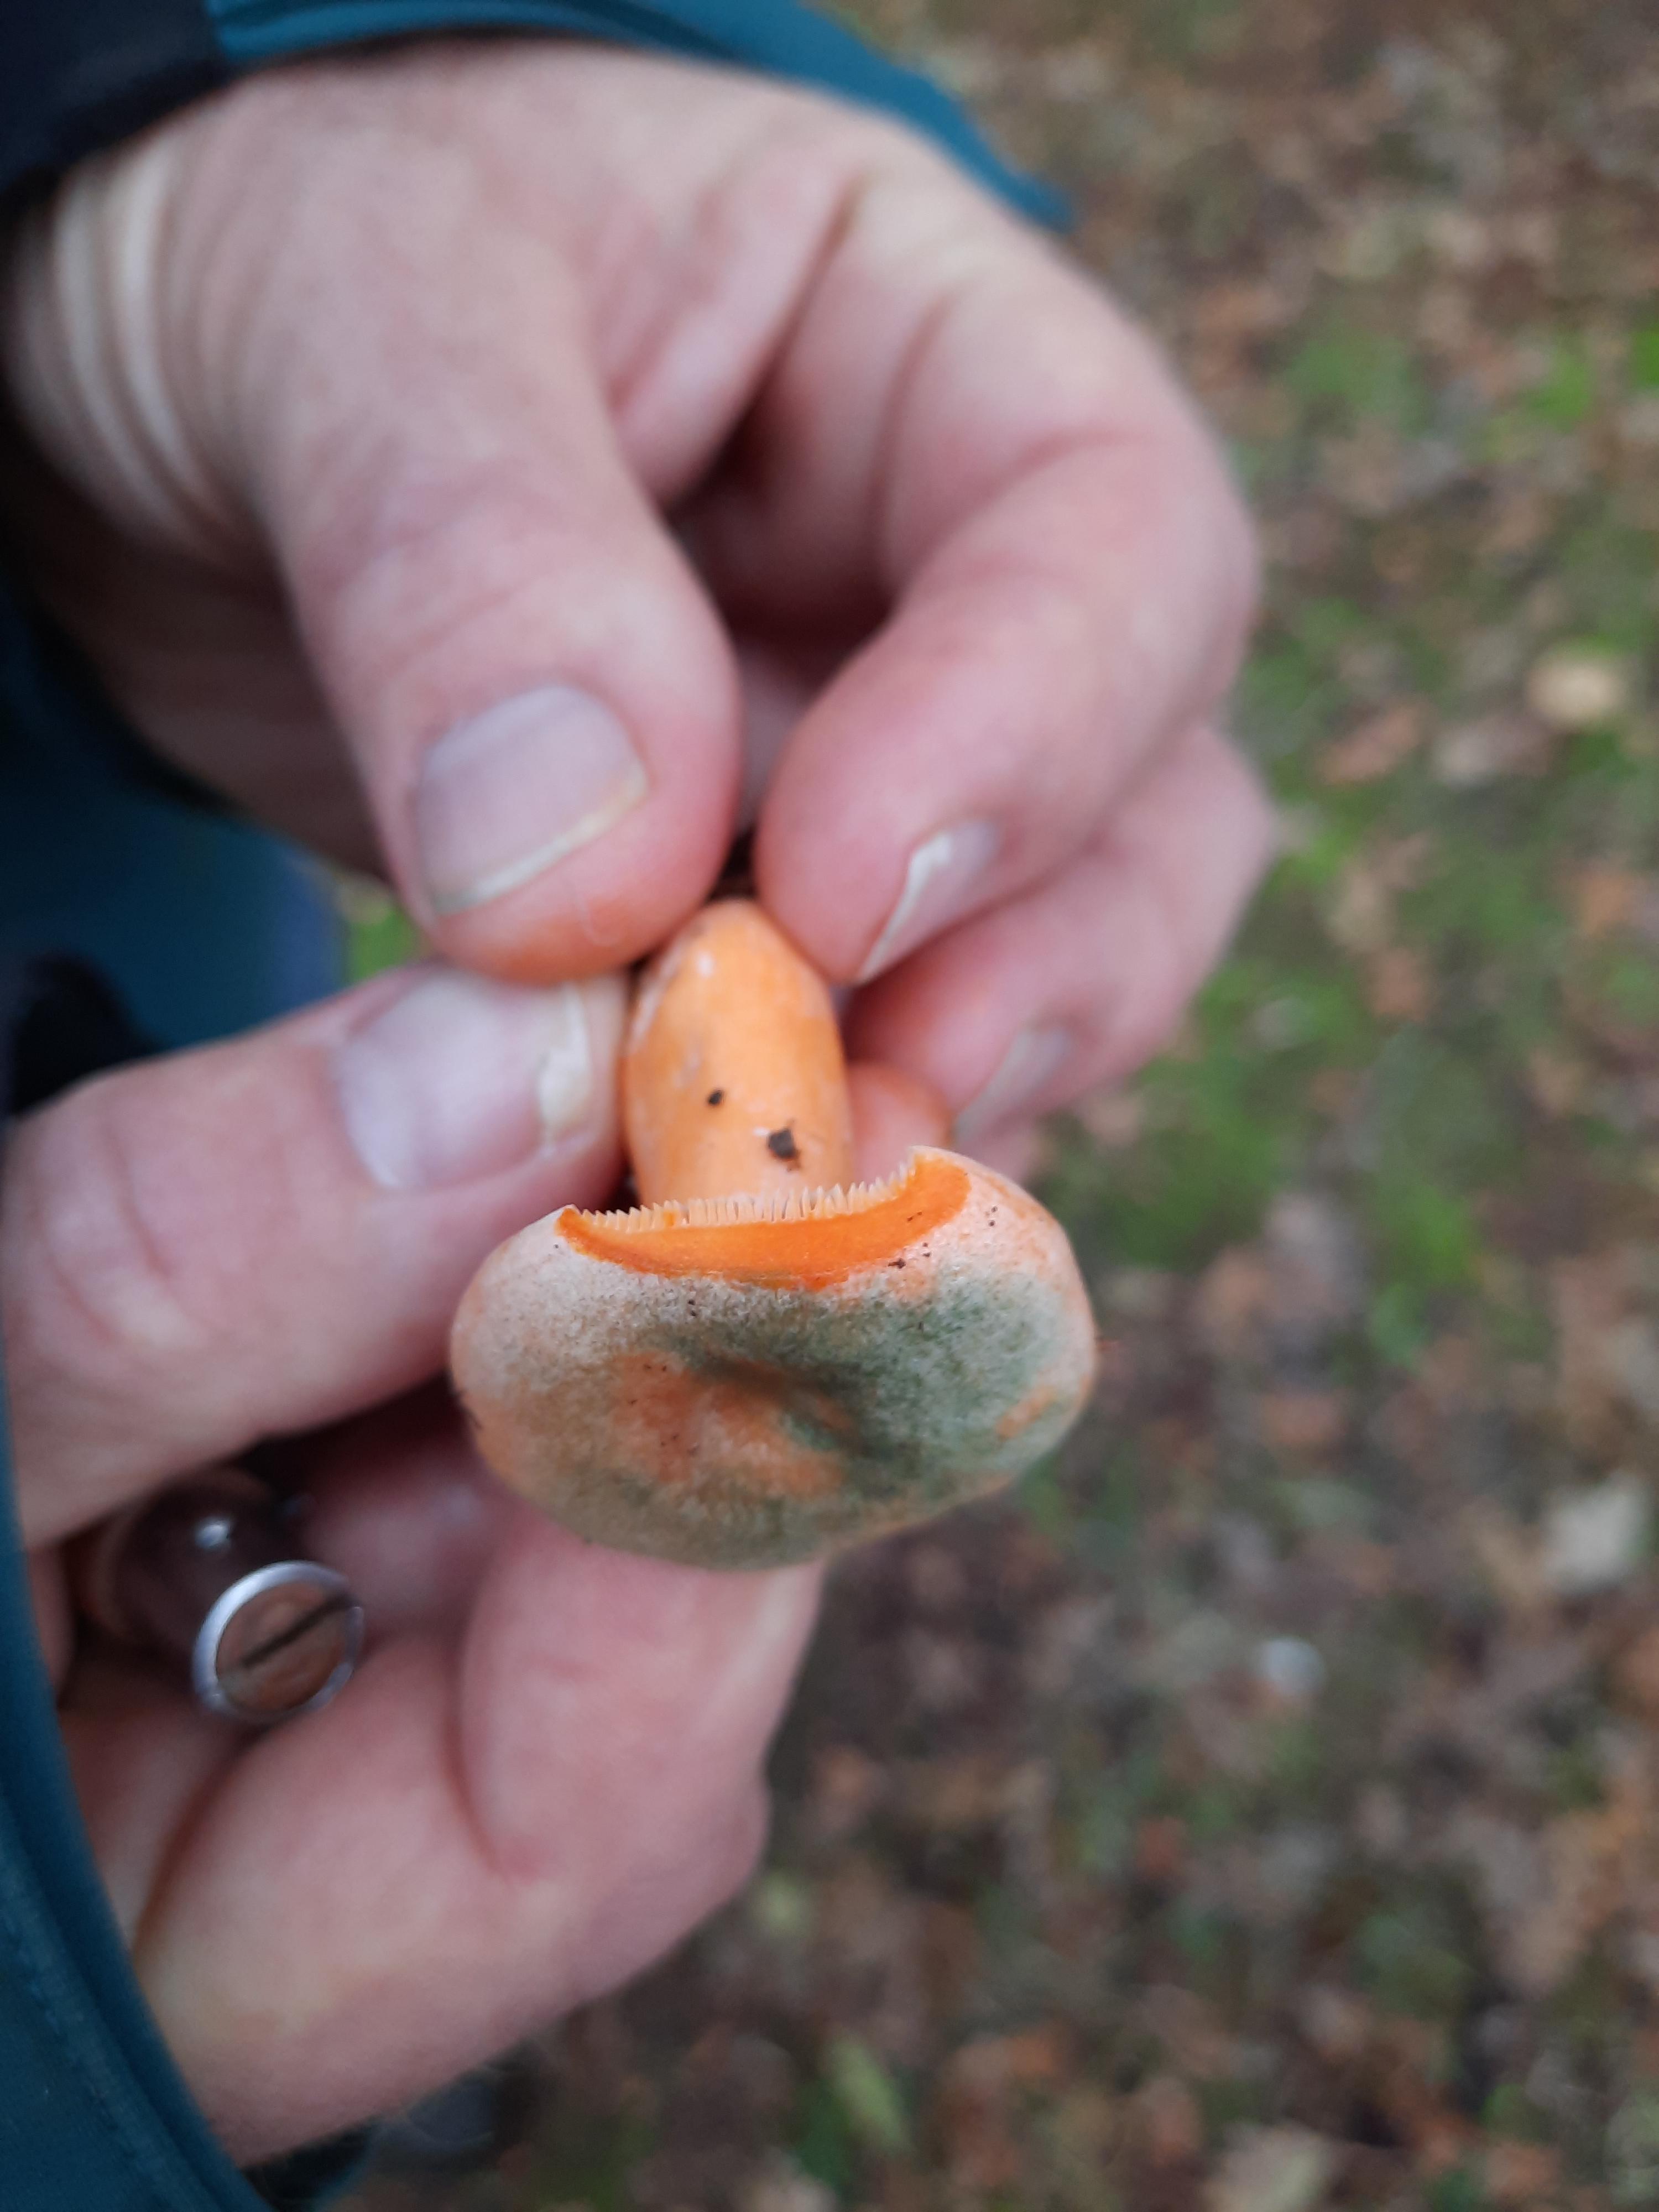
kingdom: Fungi
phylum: Basidiomycota
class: Agaricomycetes
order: Russulales
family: Russulaceae
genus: Lactarius
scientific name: Lactarius deterrimus
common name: gran-mælkehat
